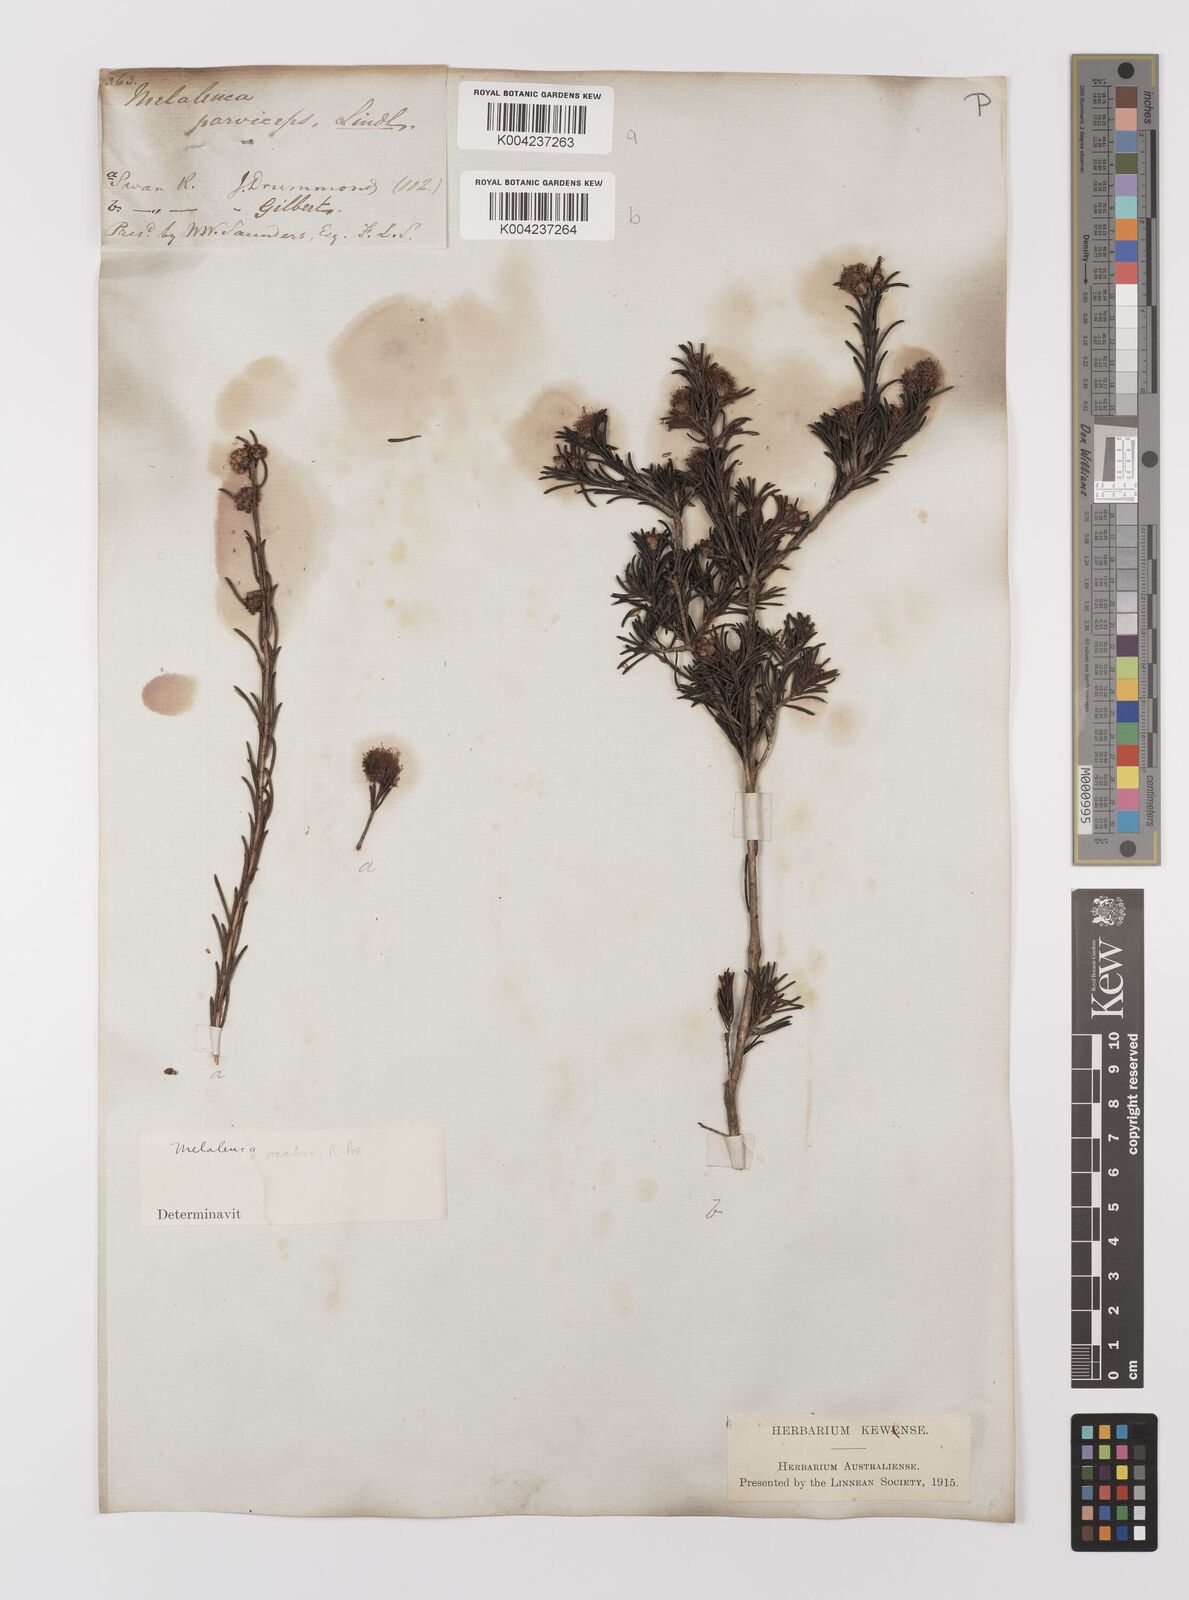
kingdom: Plantae
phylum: Tracheophyta
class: Magnoliopsida
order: Myrtales
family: Myrtaceae
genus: Melaleuca
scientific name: Melaleuca parviceps
